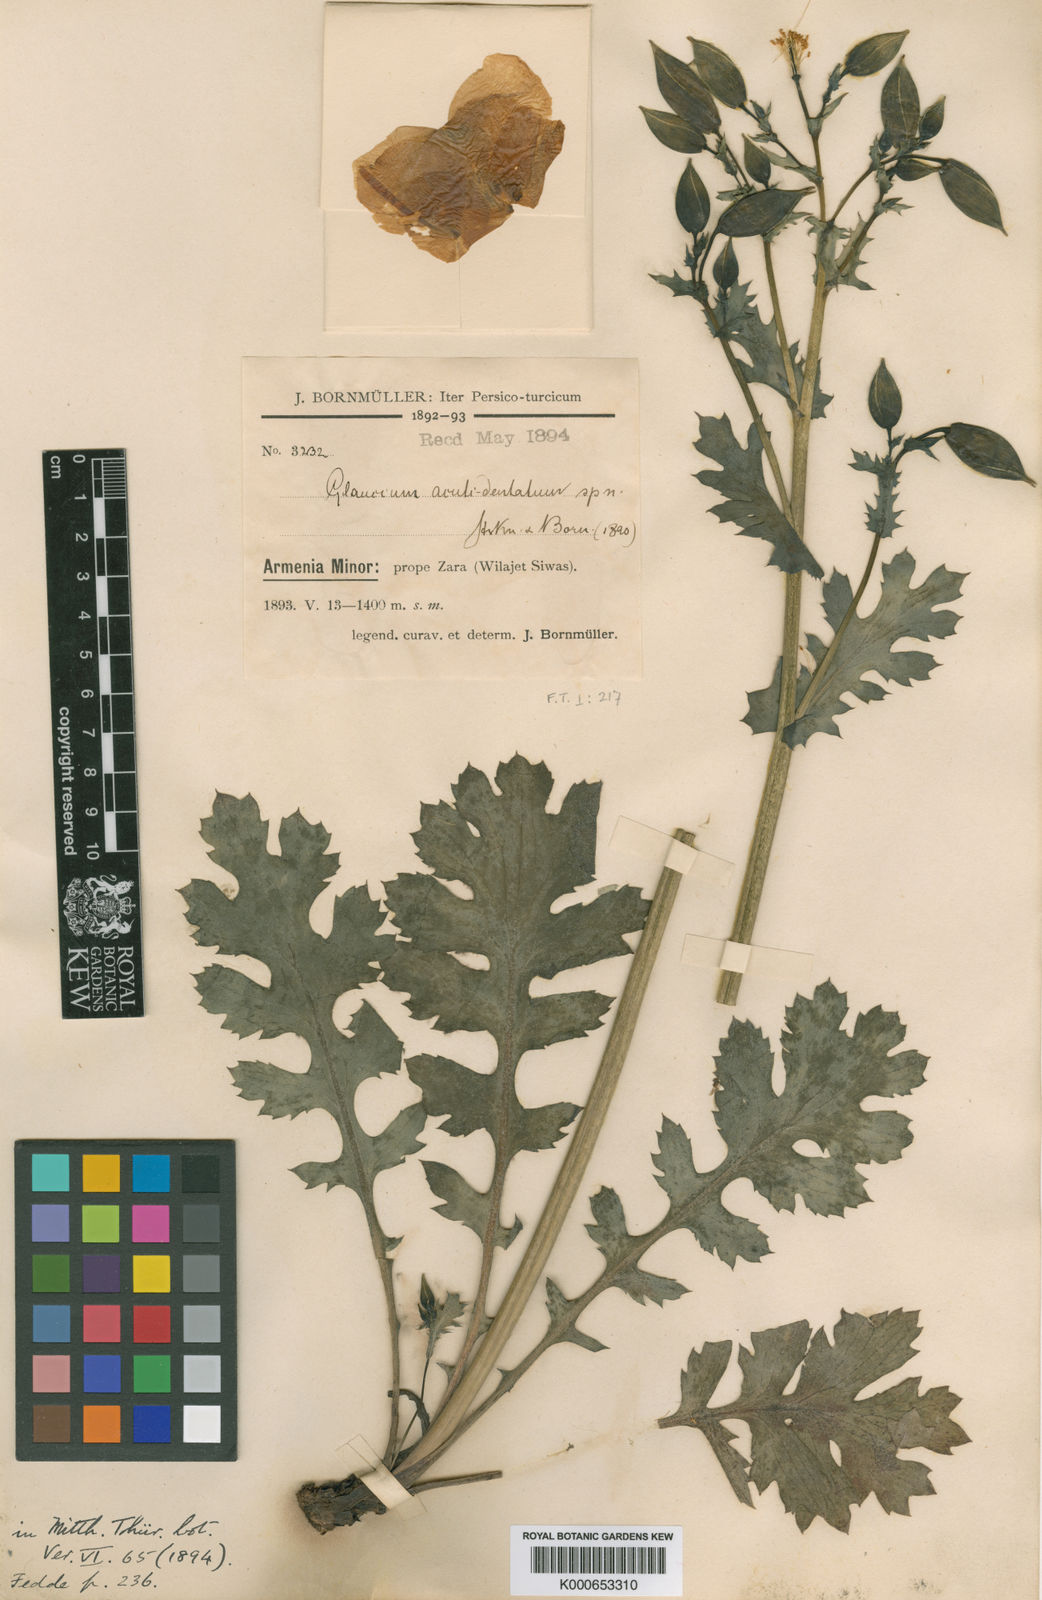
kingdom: Plantae
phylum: Tracheophyta
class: Magnoliopsida
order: Ranunculales
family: Papaveraceae
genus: Glaucium
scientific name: Glaucium acutidentatum
